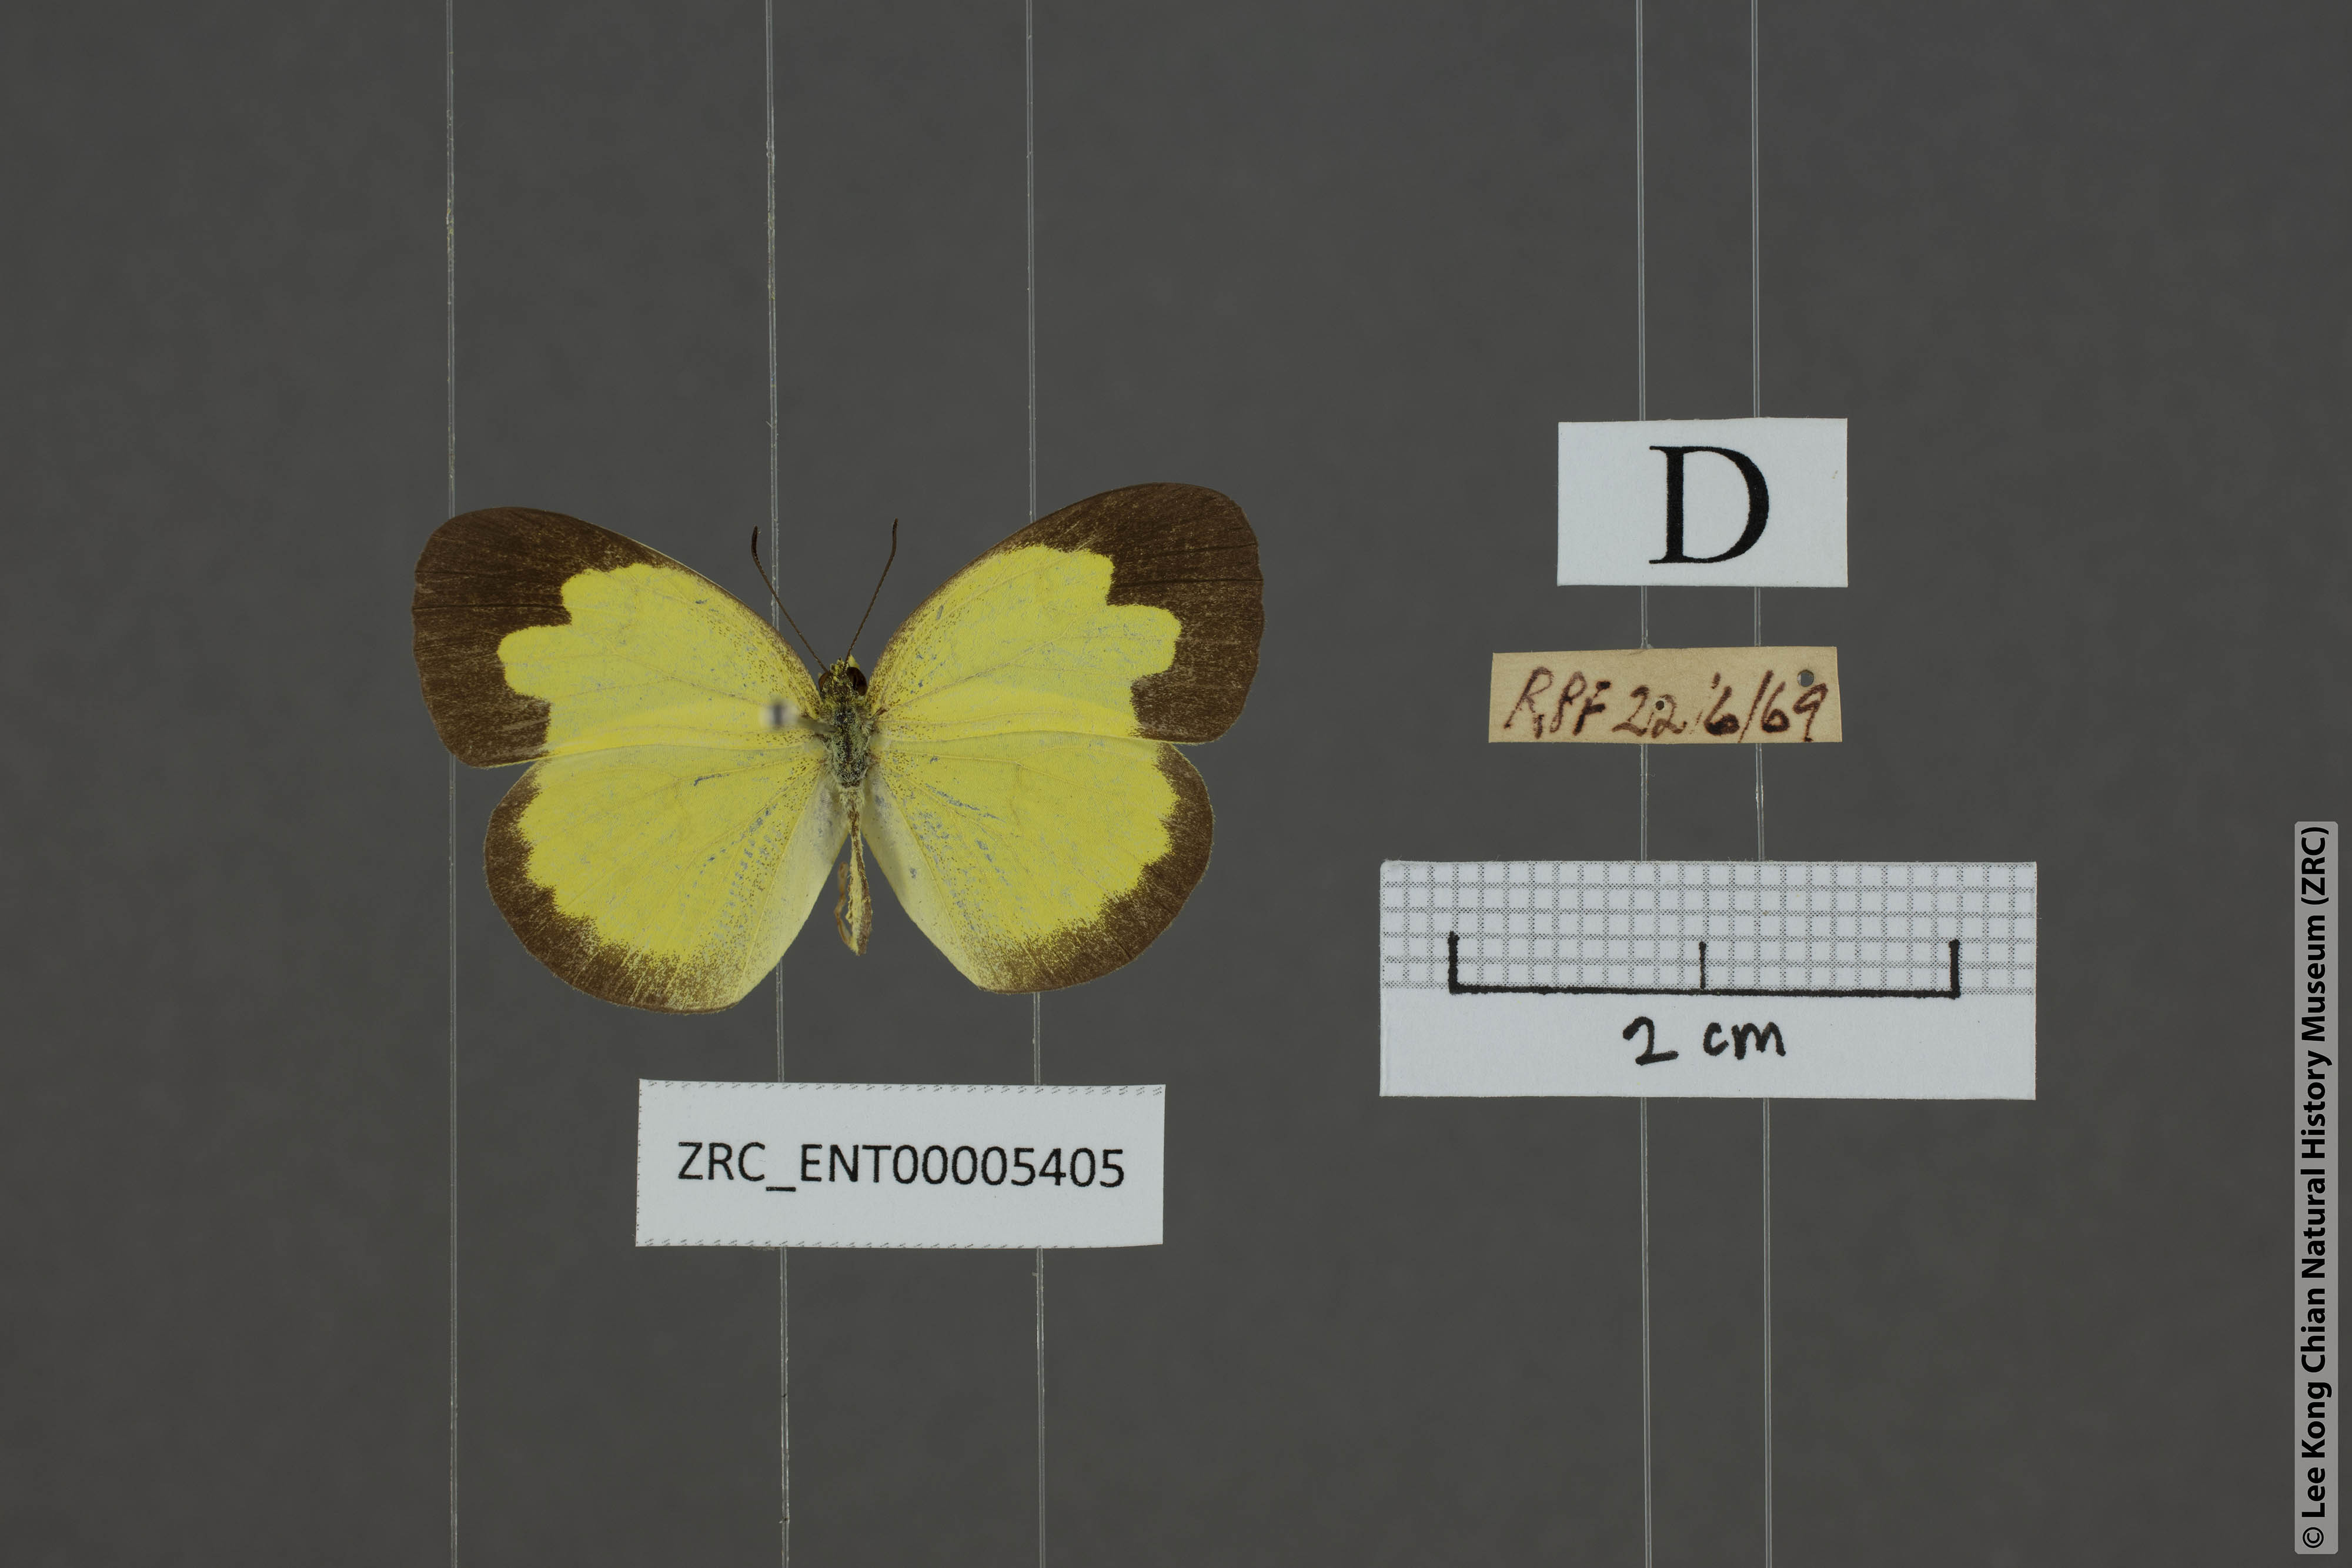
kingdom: Animalia
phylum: Arthropoda
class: Insecta
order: Lepidoptera
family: Pieridae
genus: Eurema
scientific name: Eurema ada
